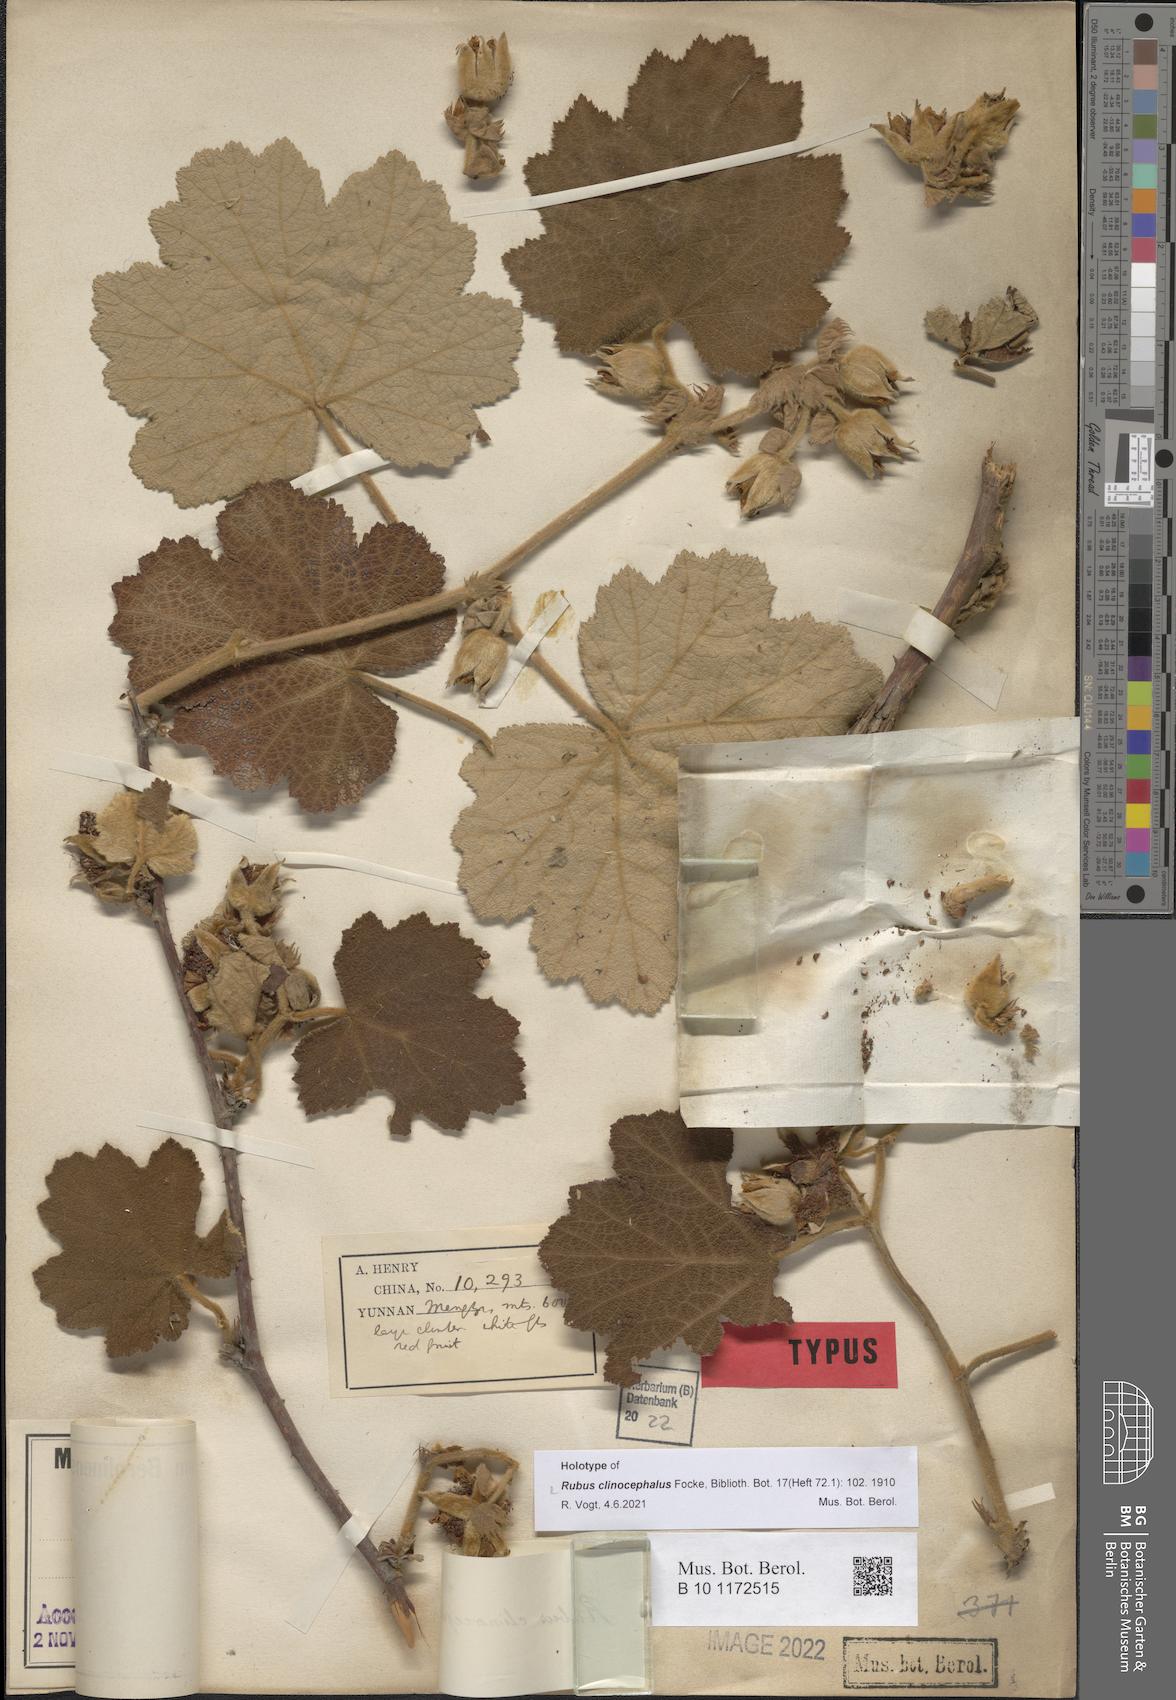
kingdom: Plantae
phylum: Tracheophyta
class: Magnoliopsida
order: Rosales
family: Rosaceae
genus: Rubus
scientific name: Rubus clinocephalus
